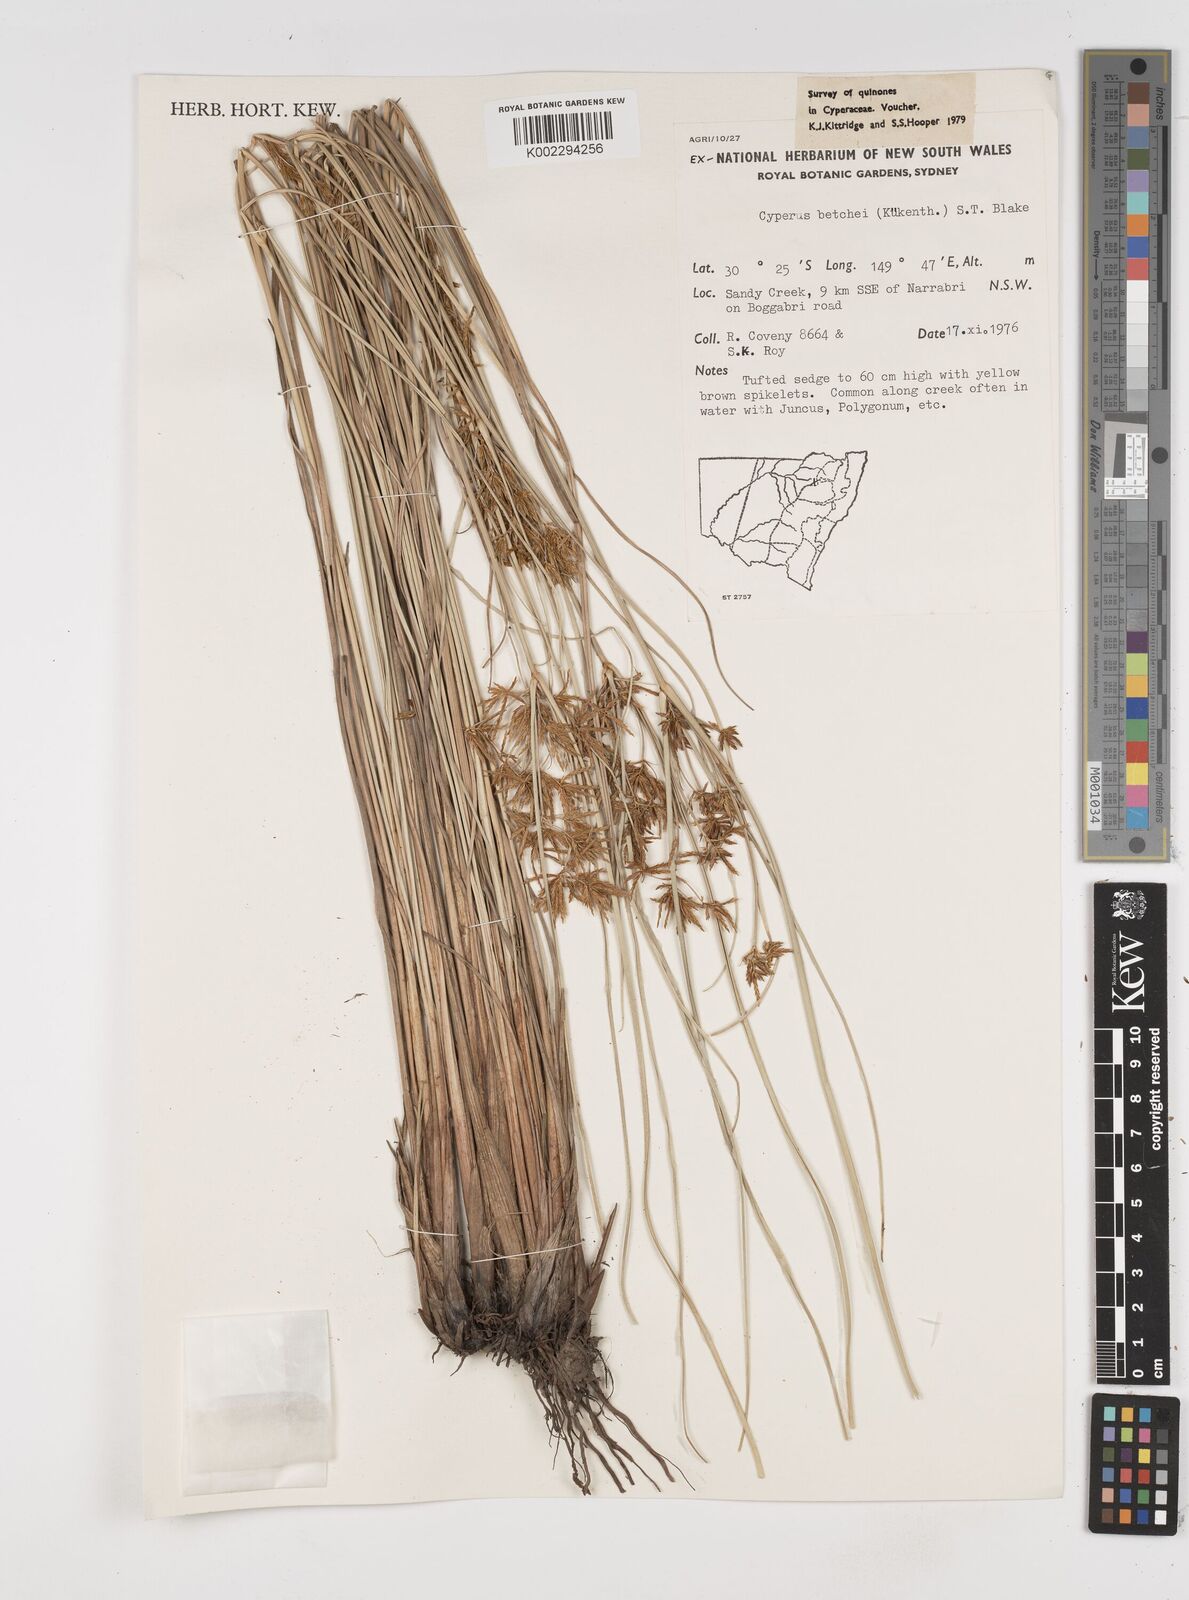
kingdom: Plantae
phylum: Tracheophyta
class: Liliopsida
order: Poales
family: Cyperaceae
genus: Cyperus
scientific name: Cyperus betchei
